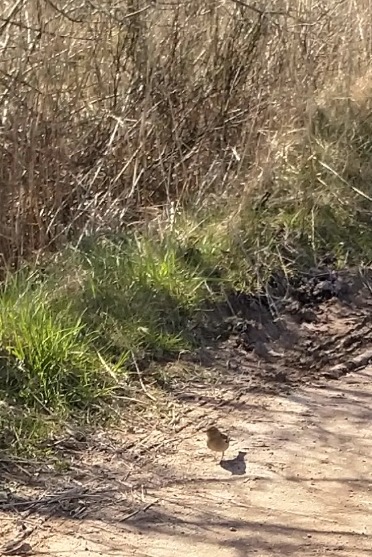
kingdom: Animalia
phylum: Chordata
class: Aves
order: Passeriformes
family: Fringillidae
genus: Fringilla
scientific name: Fringilla coelebs
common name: Bogfinke
